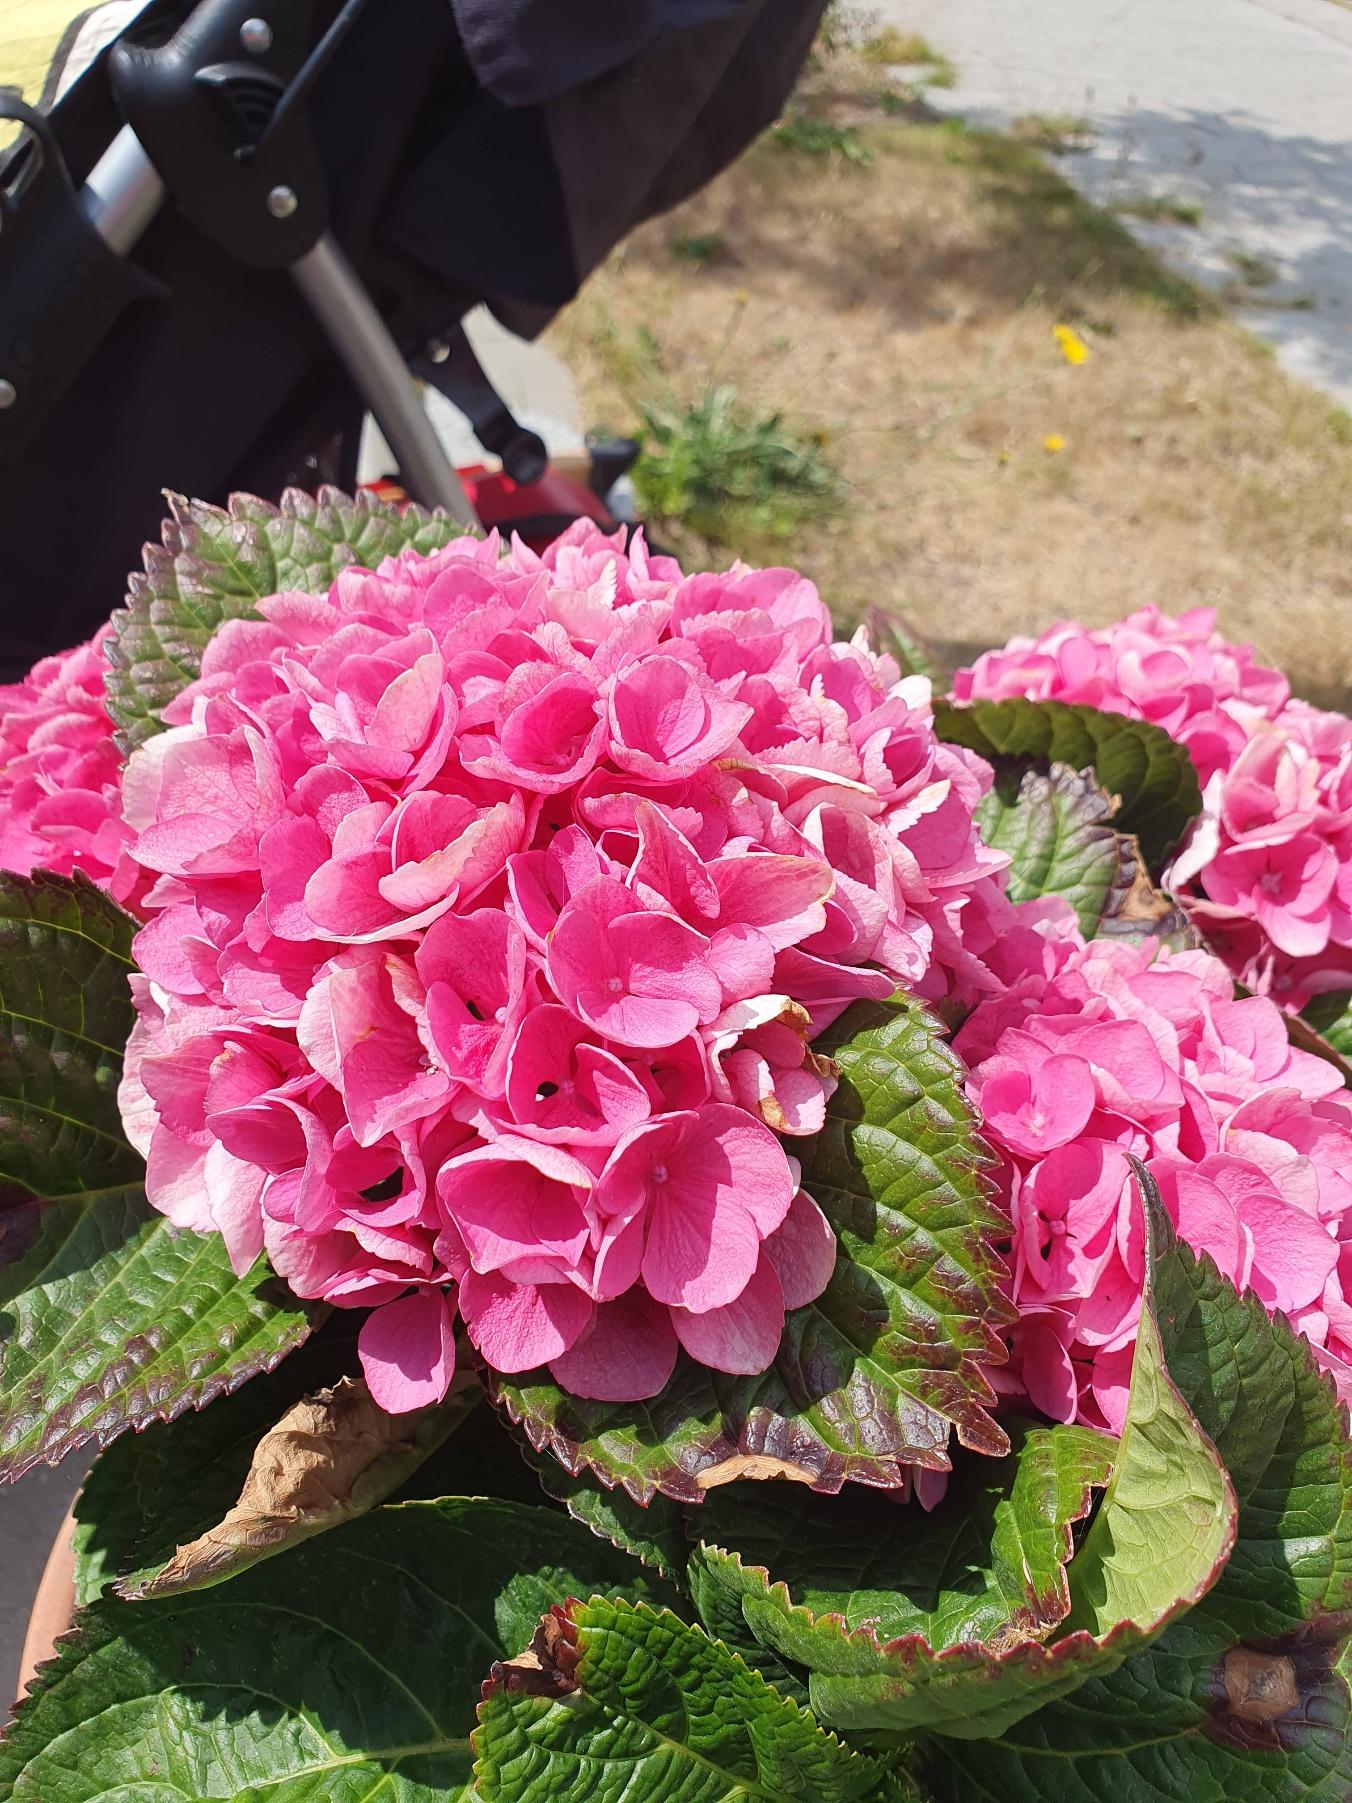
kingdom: Plantae
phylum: Tracheophyta
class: Magnoliopsida
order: Cornales
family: Hydrangeaceae
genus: Hydrangea
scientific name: Hydrangea
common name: Hydrangea
